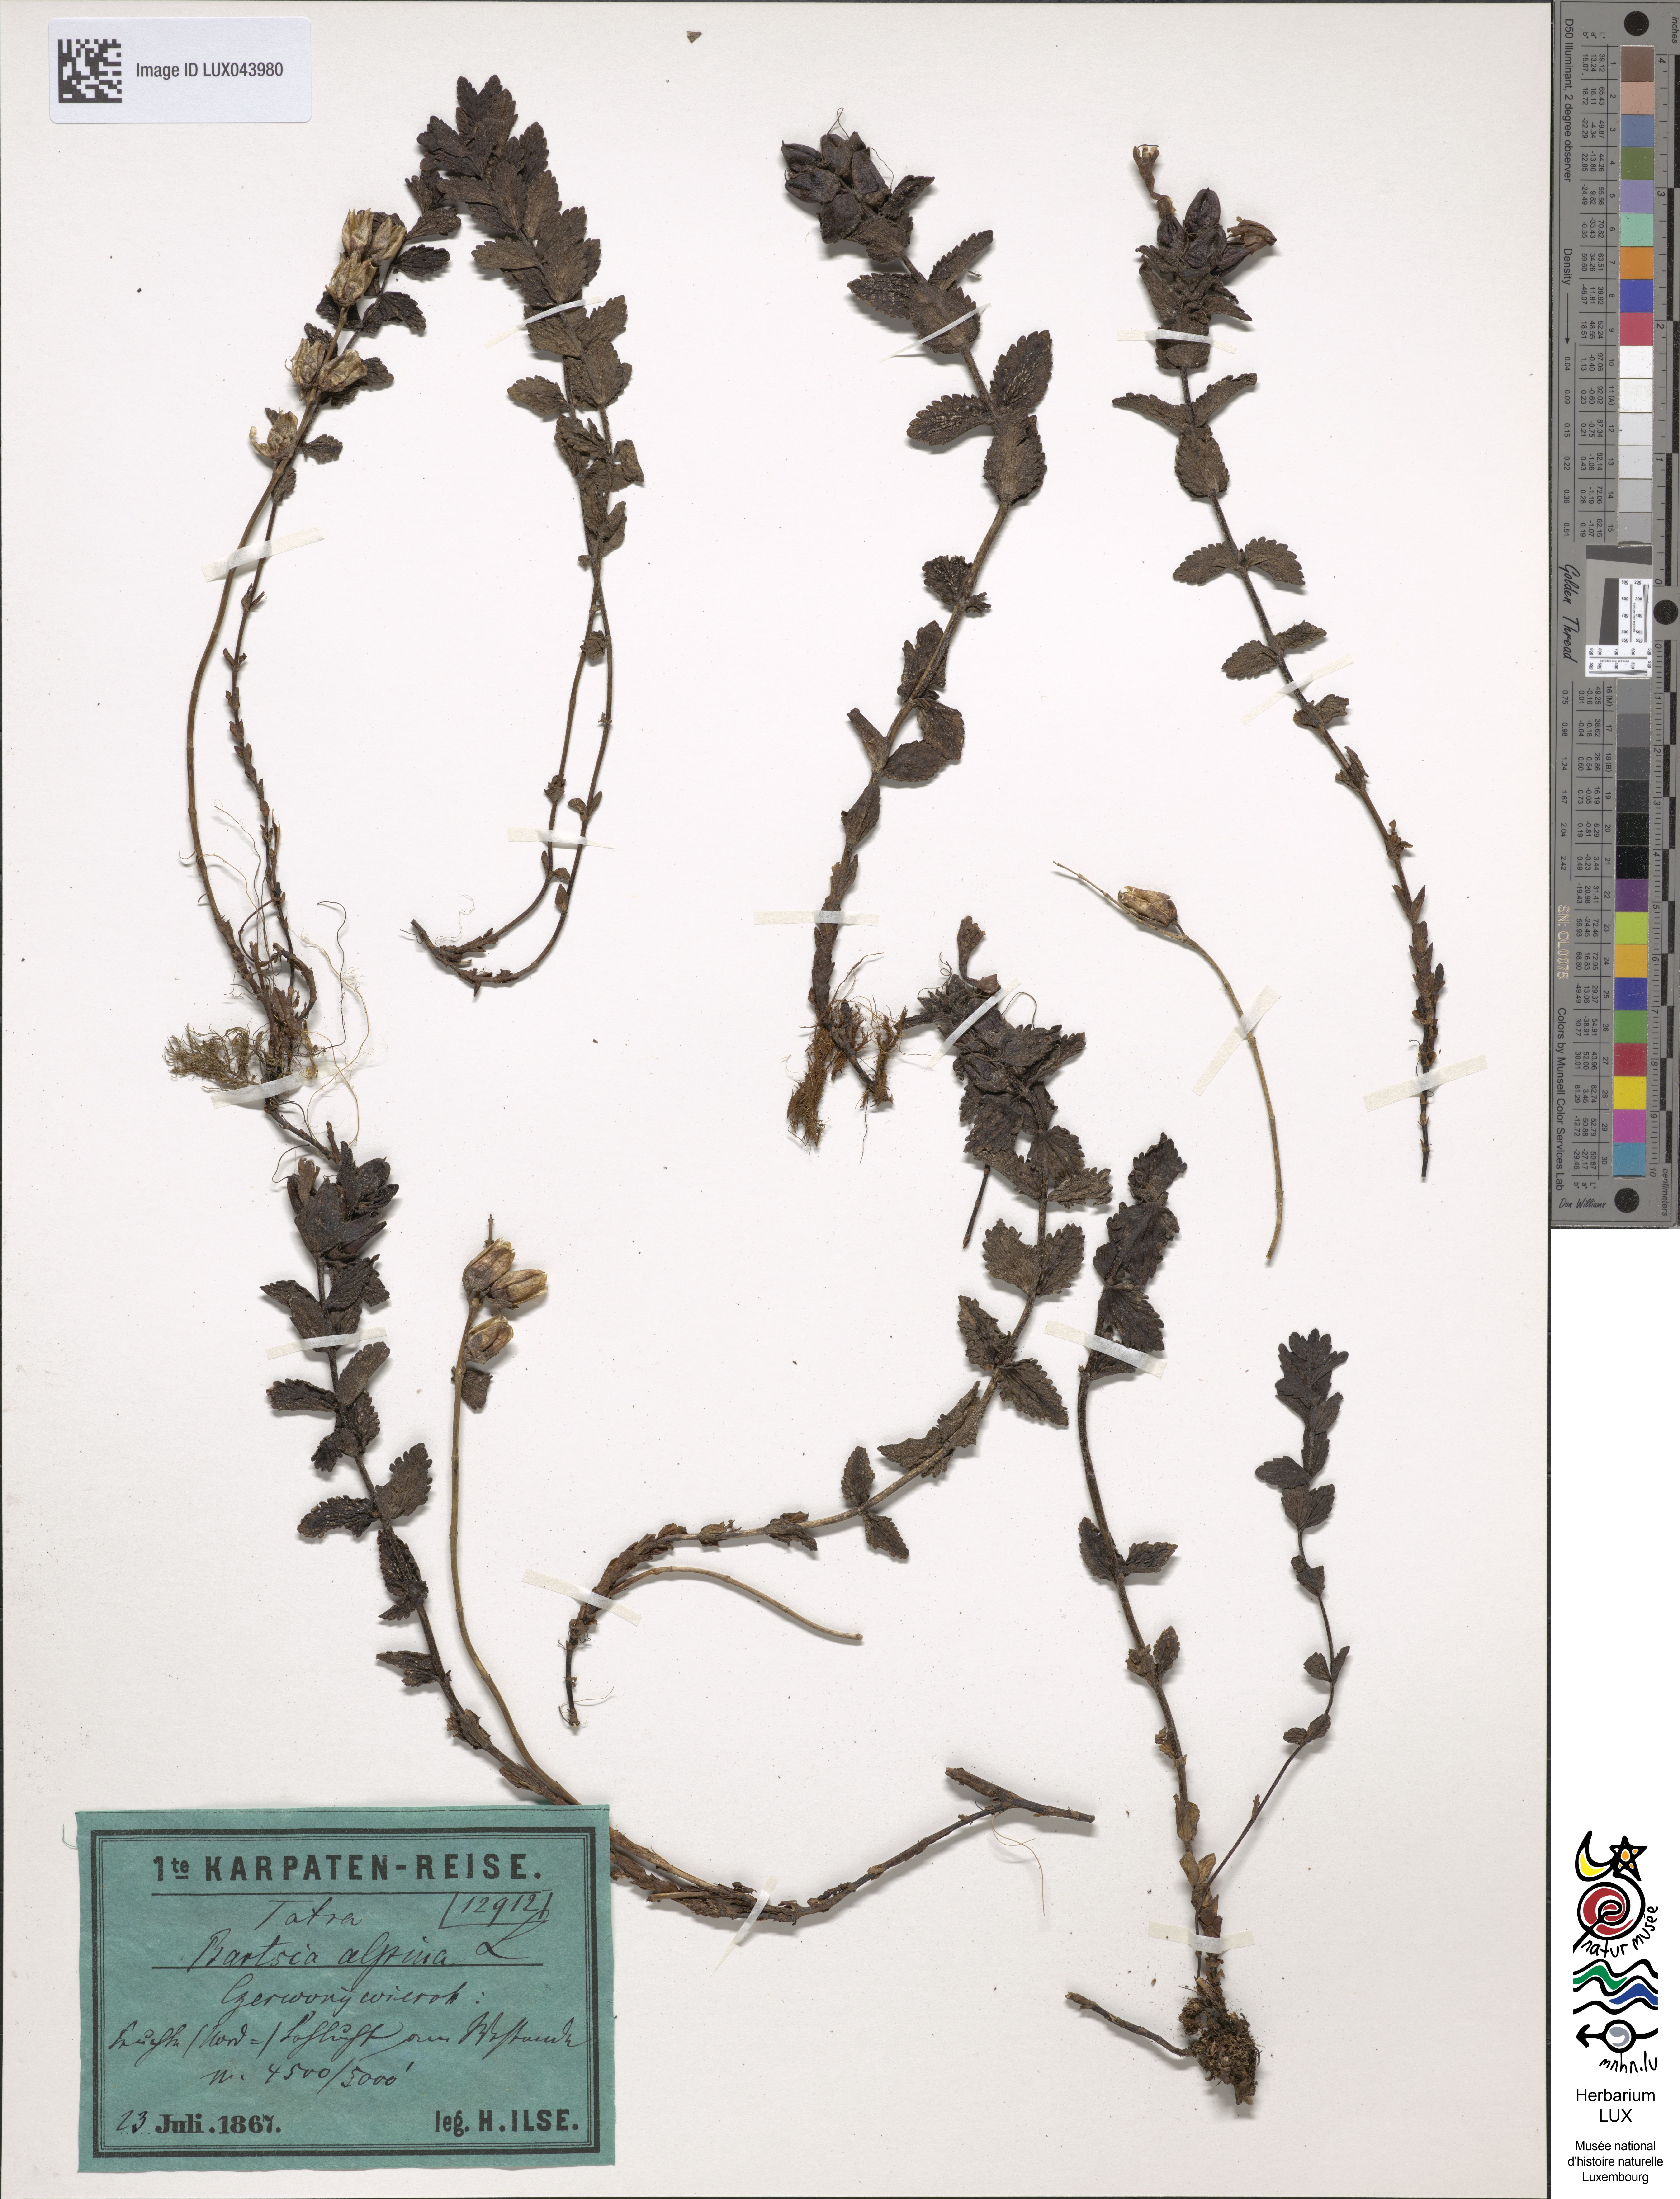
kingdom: Plantae
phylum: Tracheophyta
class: Magnoliopsida
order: Lamiales
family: Orobanchaceae
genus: Bartsia
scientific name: Bartsia alpina
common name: Alpine bartsia
